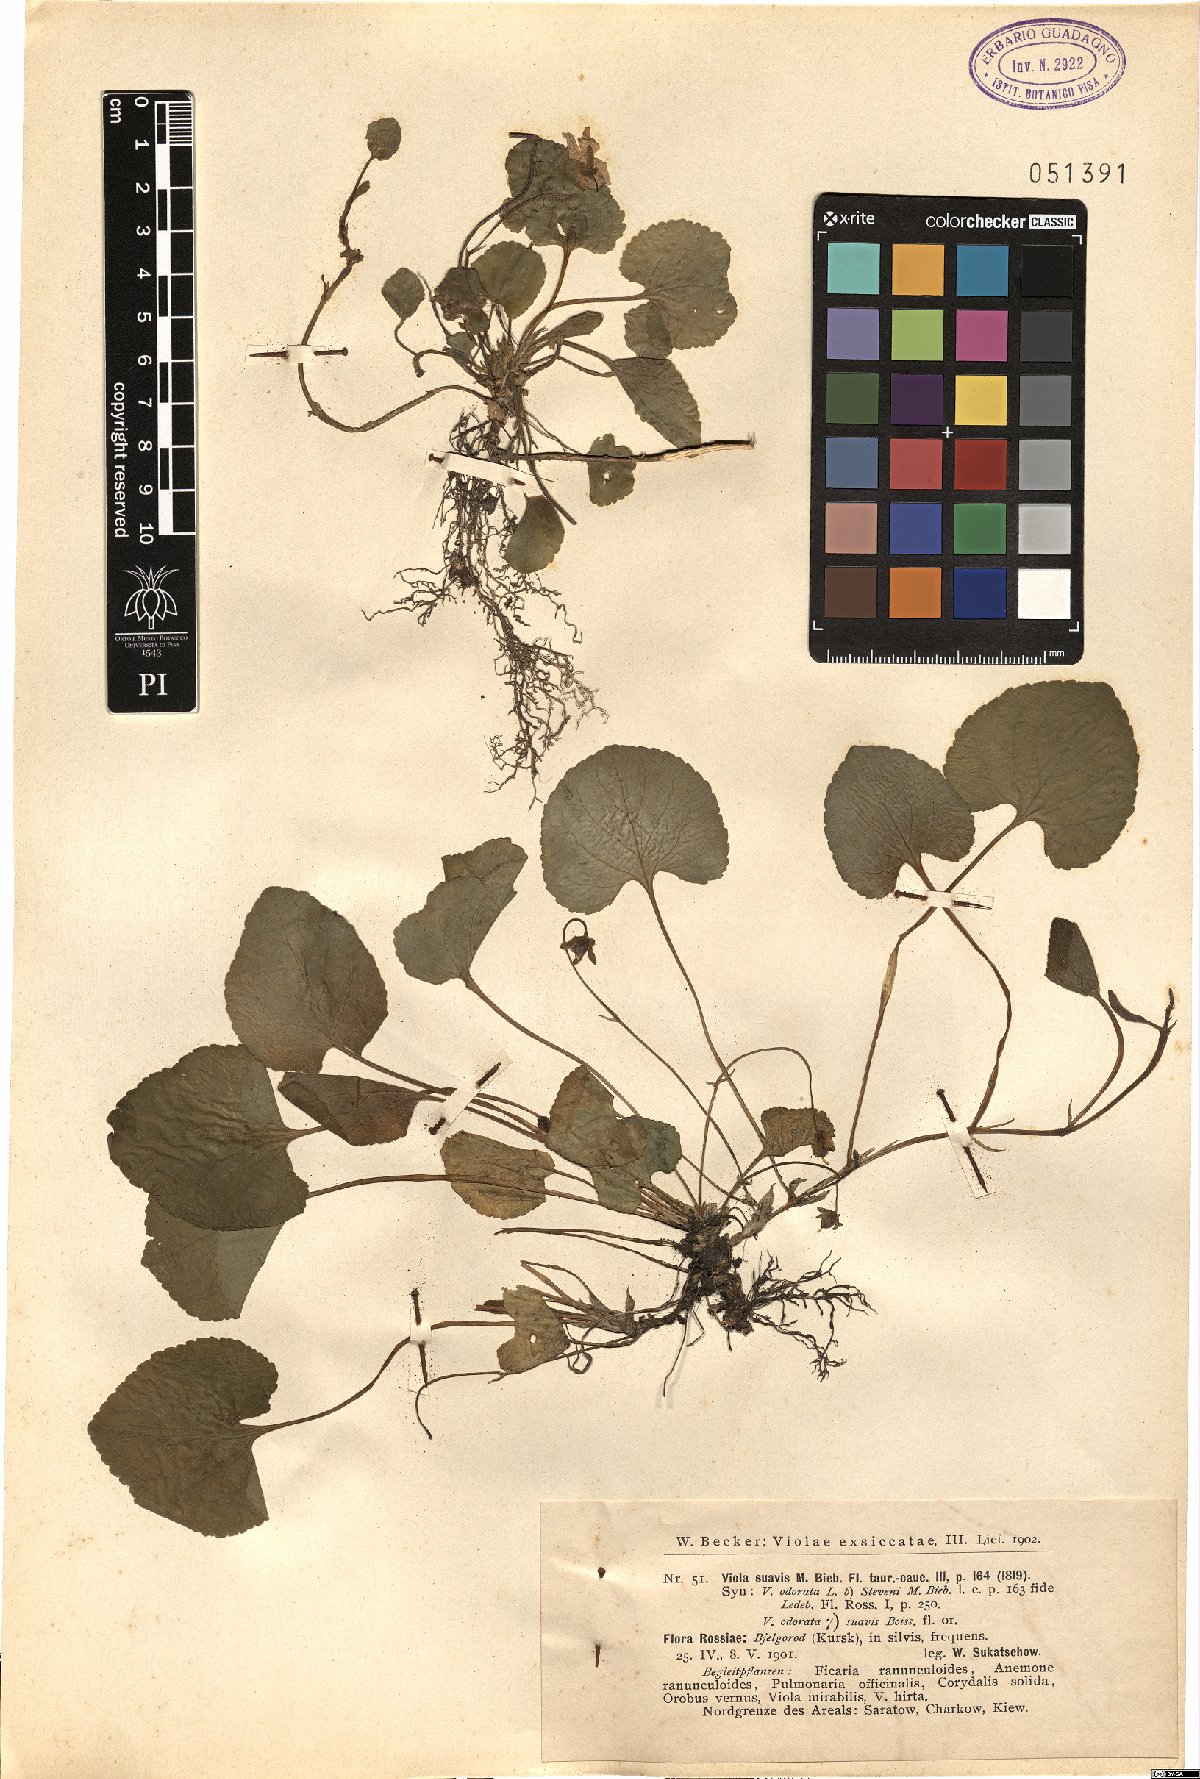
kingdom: Plantae
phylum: Tracheophyta
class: Magnoliopsida
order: Malpighiales
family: Violaceae
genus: Viola
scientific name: Viola suavis
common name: Russian violet
